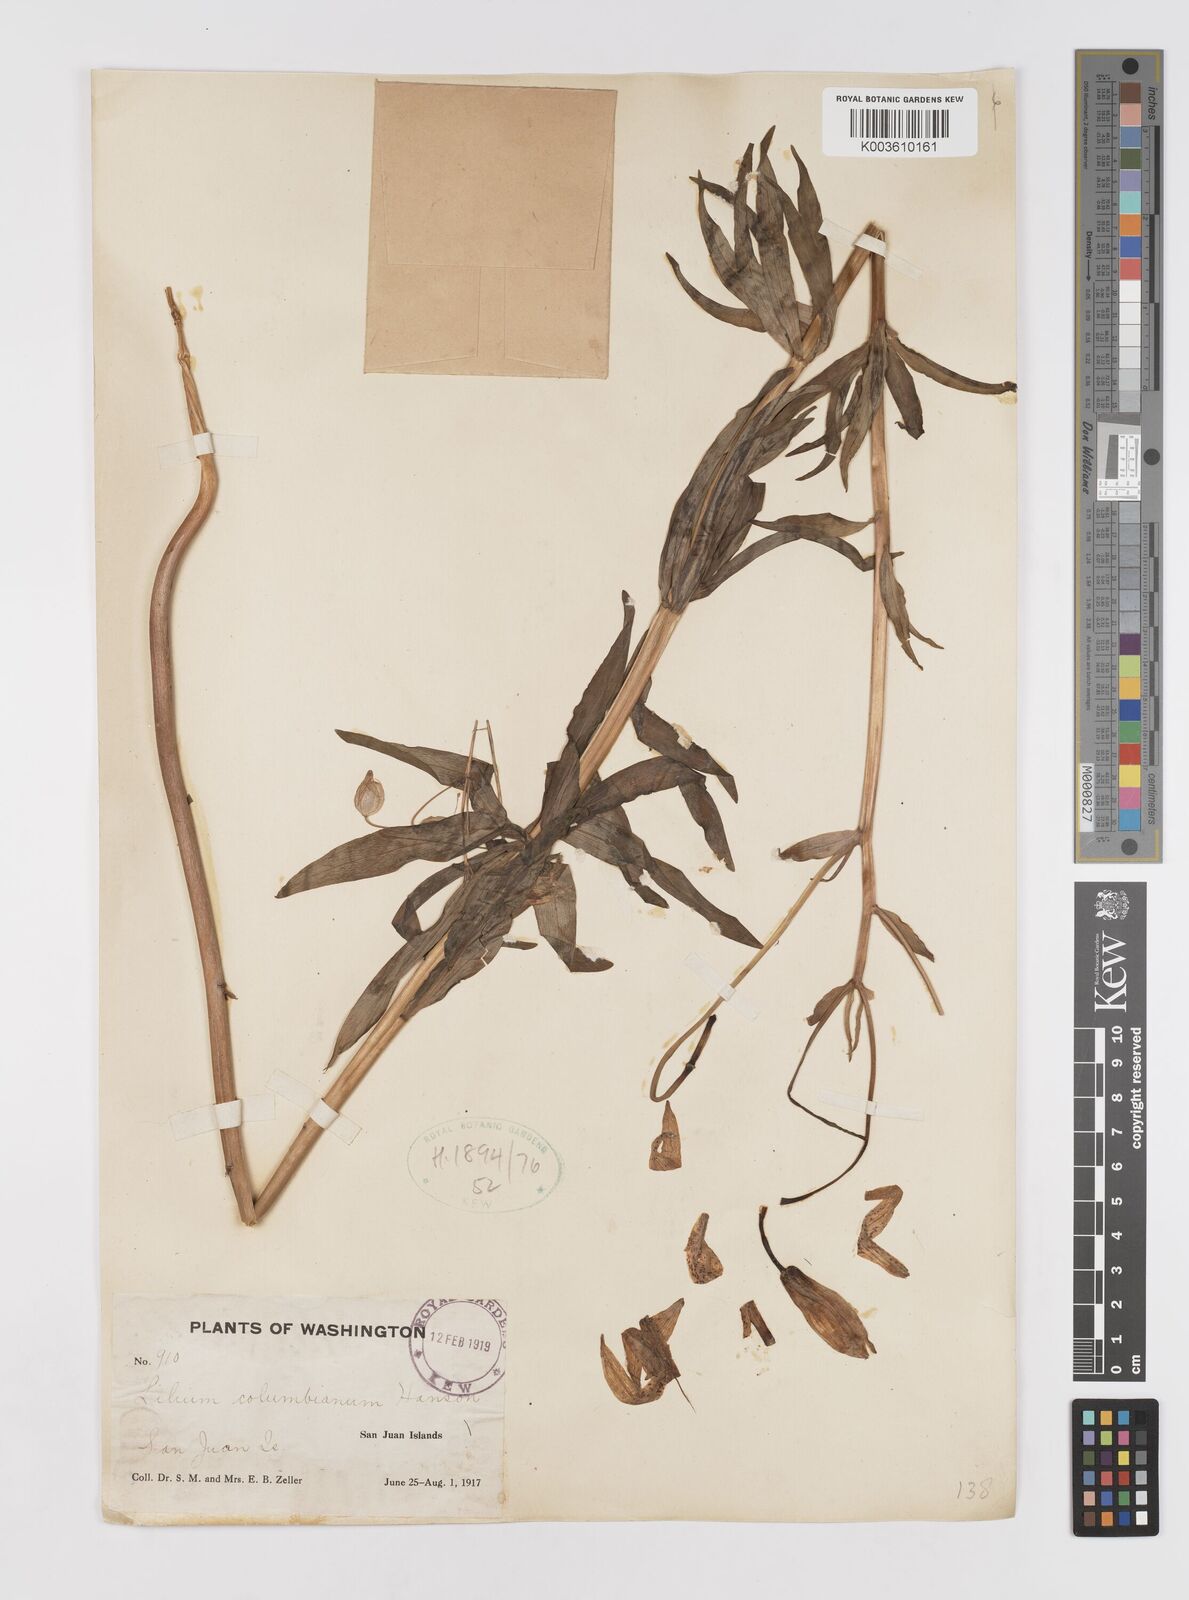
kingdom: Plantae
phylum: Tracheophyta
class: Liliopsida
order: Liliales
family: Liliaceae
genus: Lilium
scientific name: Lilium
